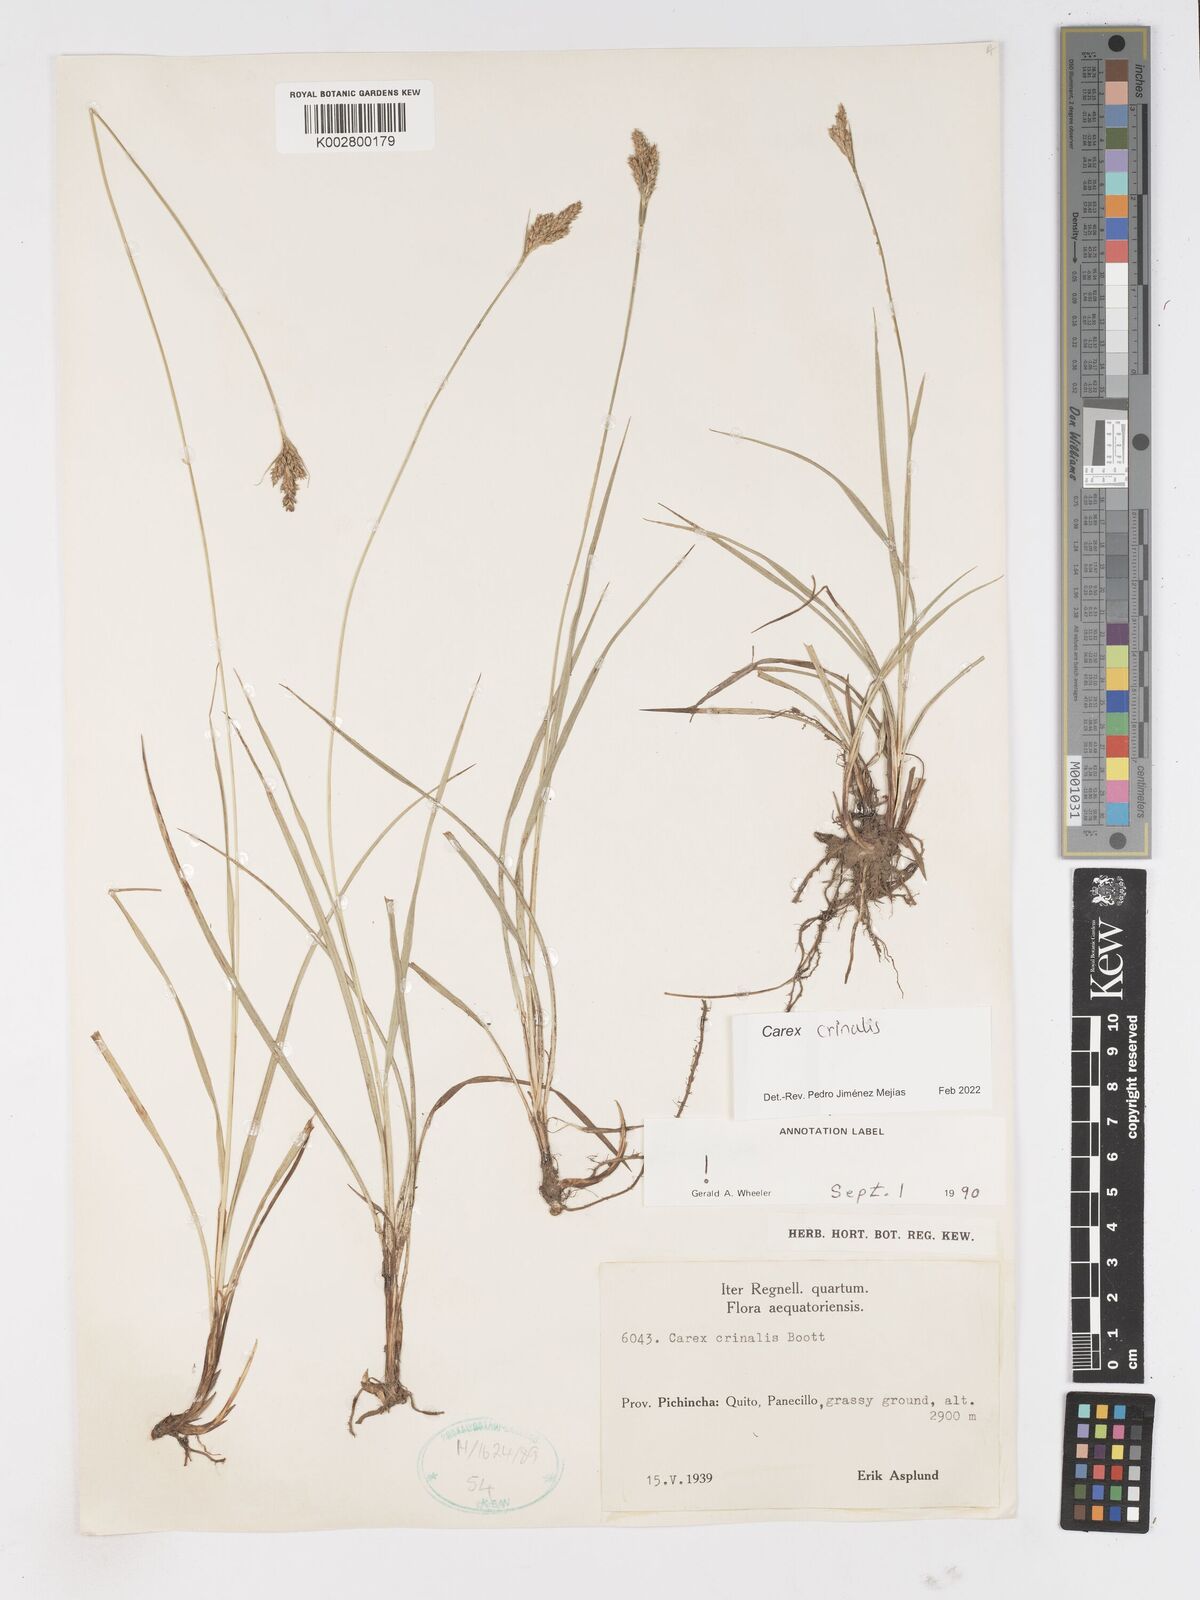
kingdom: Plantae
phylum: Tracheophyta
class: Liliopsida
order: Poales
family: Cyperaceae
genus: Carex
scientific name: Carex crinalis
